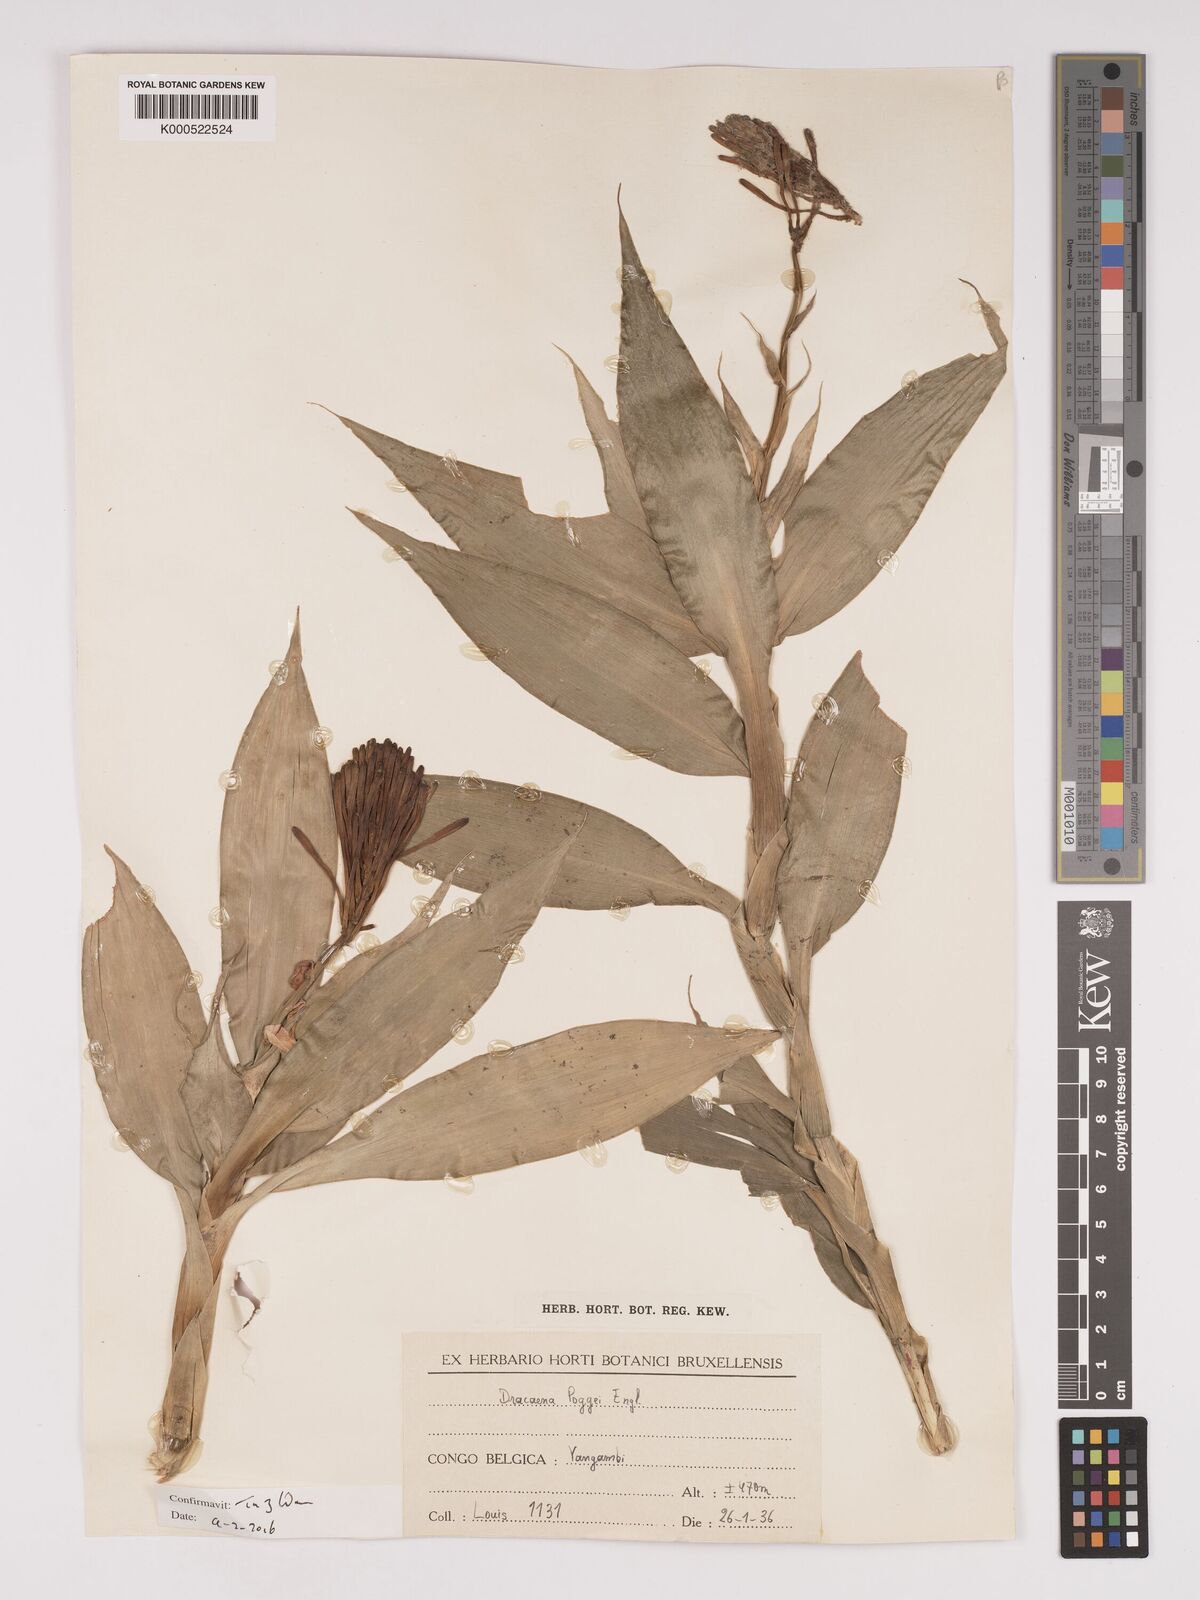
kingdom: Plantae
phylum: Tracheophyta
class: Liliopsida
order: Asparagales
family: Asparagaceae
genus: Dracaena
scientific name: Dracaena sanderiana
